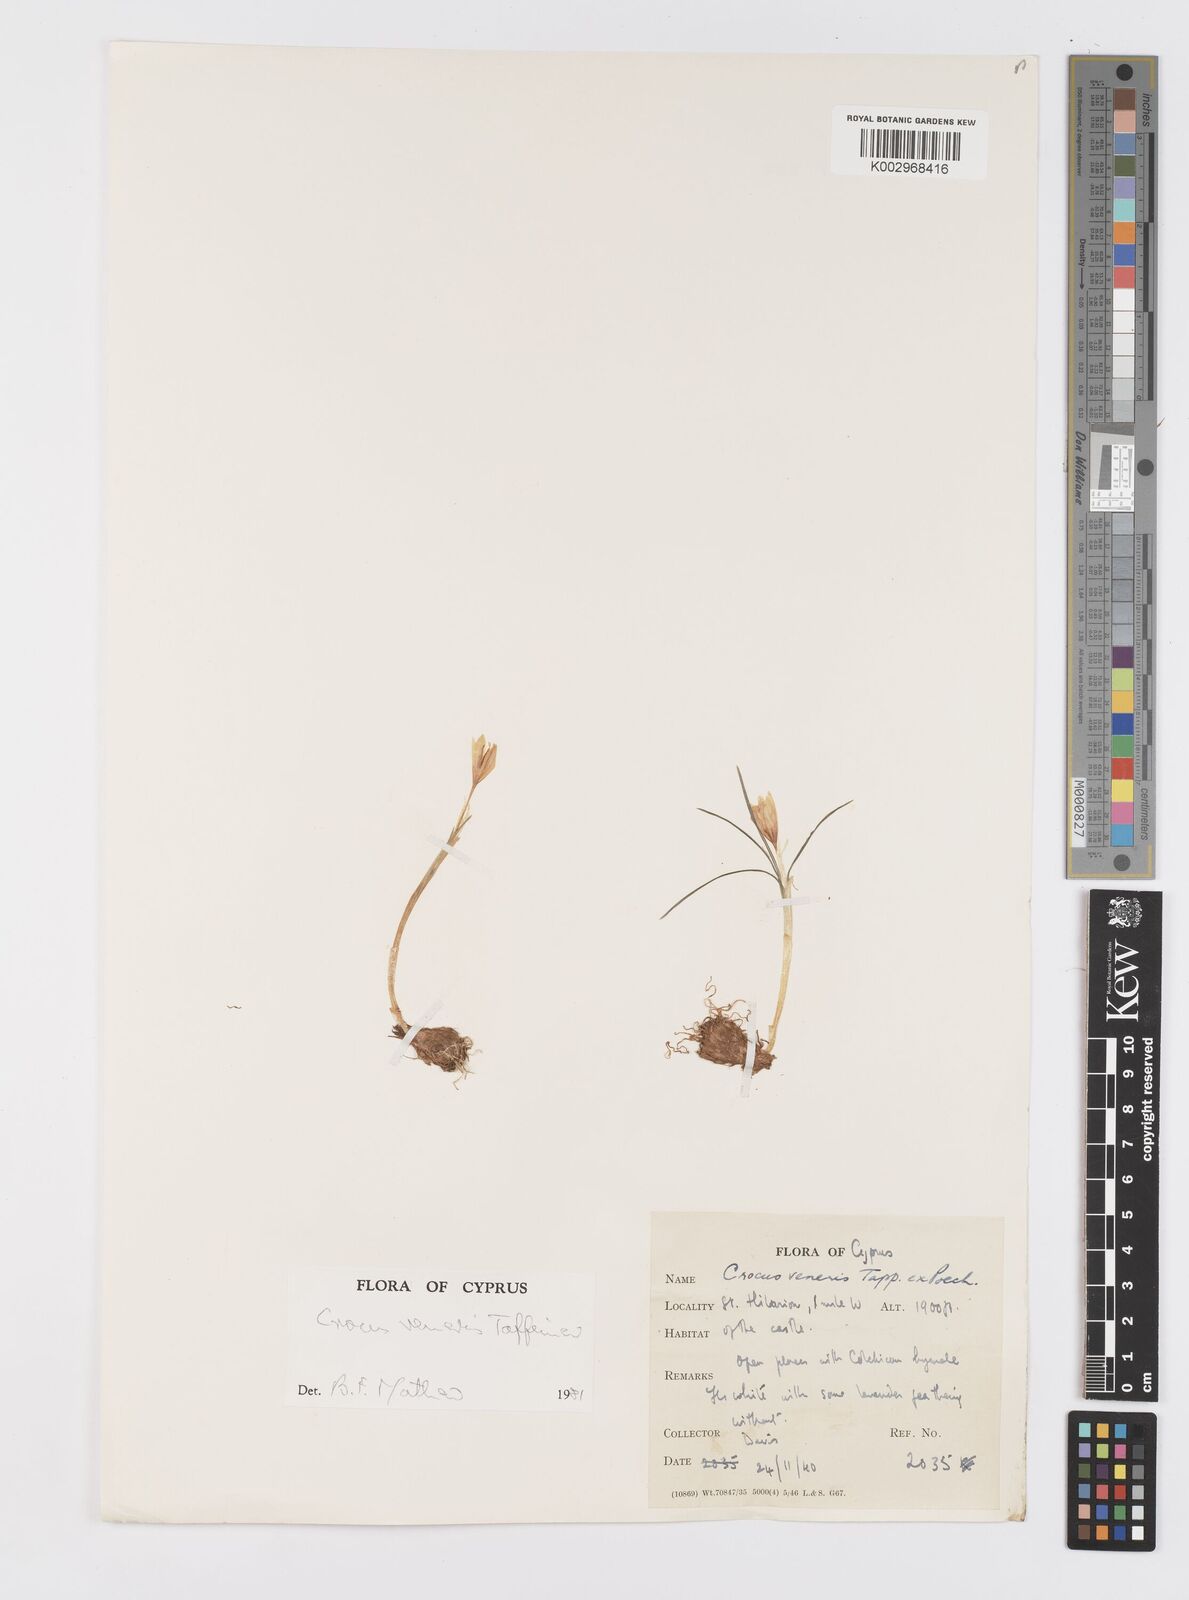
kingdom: Plantae
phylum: Tracheophyta
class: Liliopsida
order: Asparagales
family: Iridaceae
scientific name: Iridaceae
